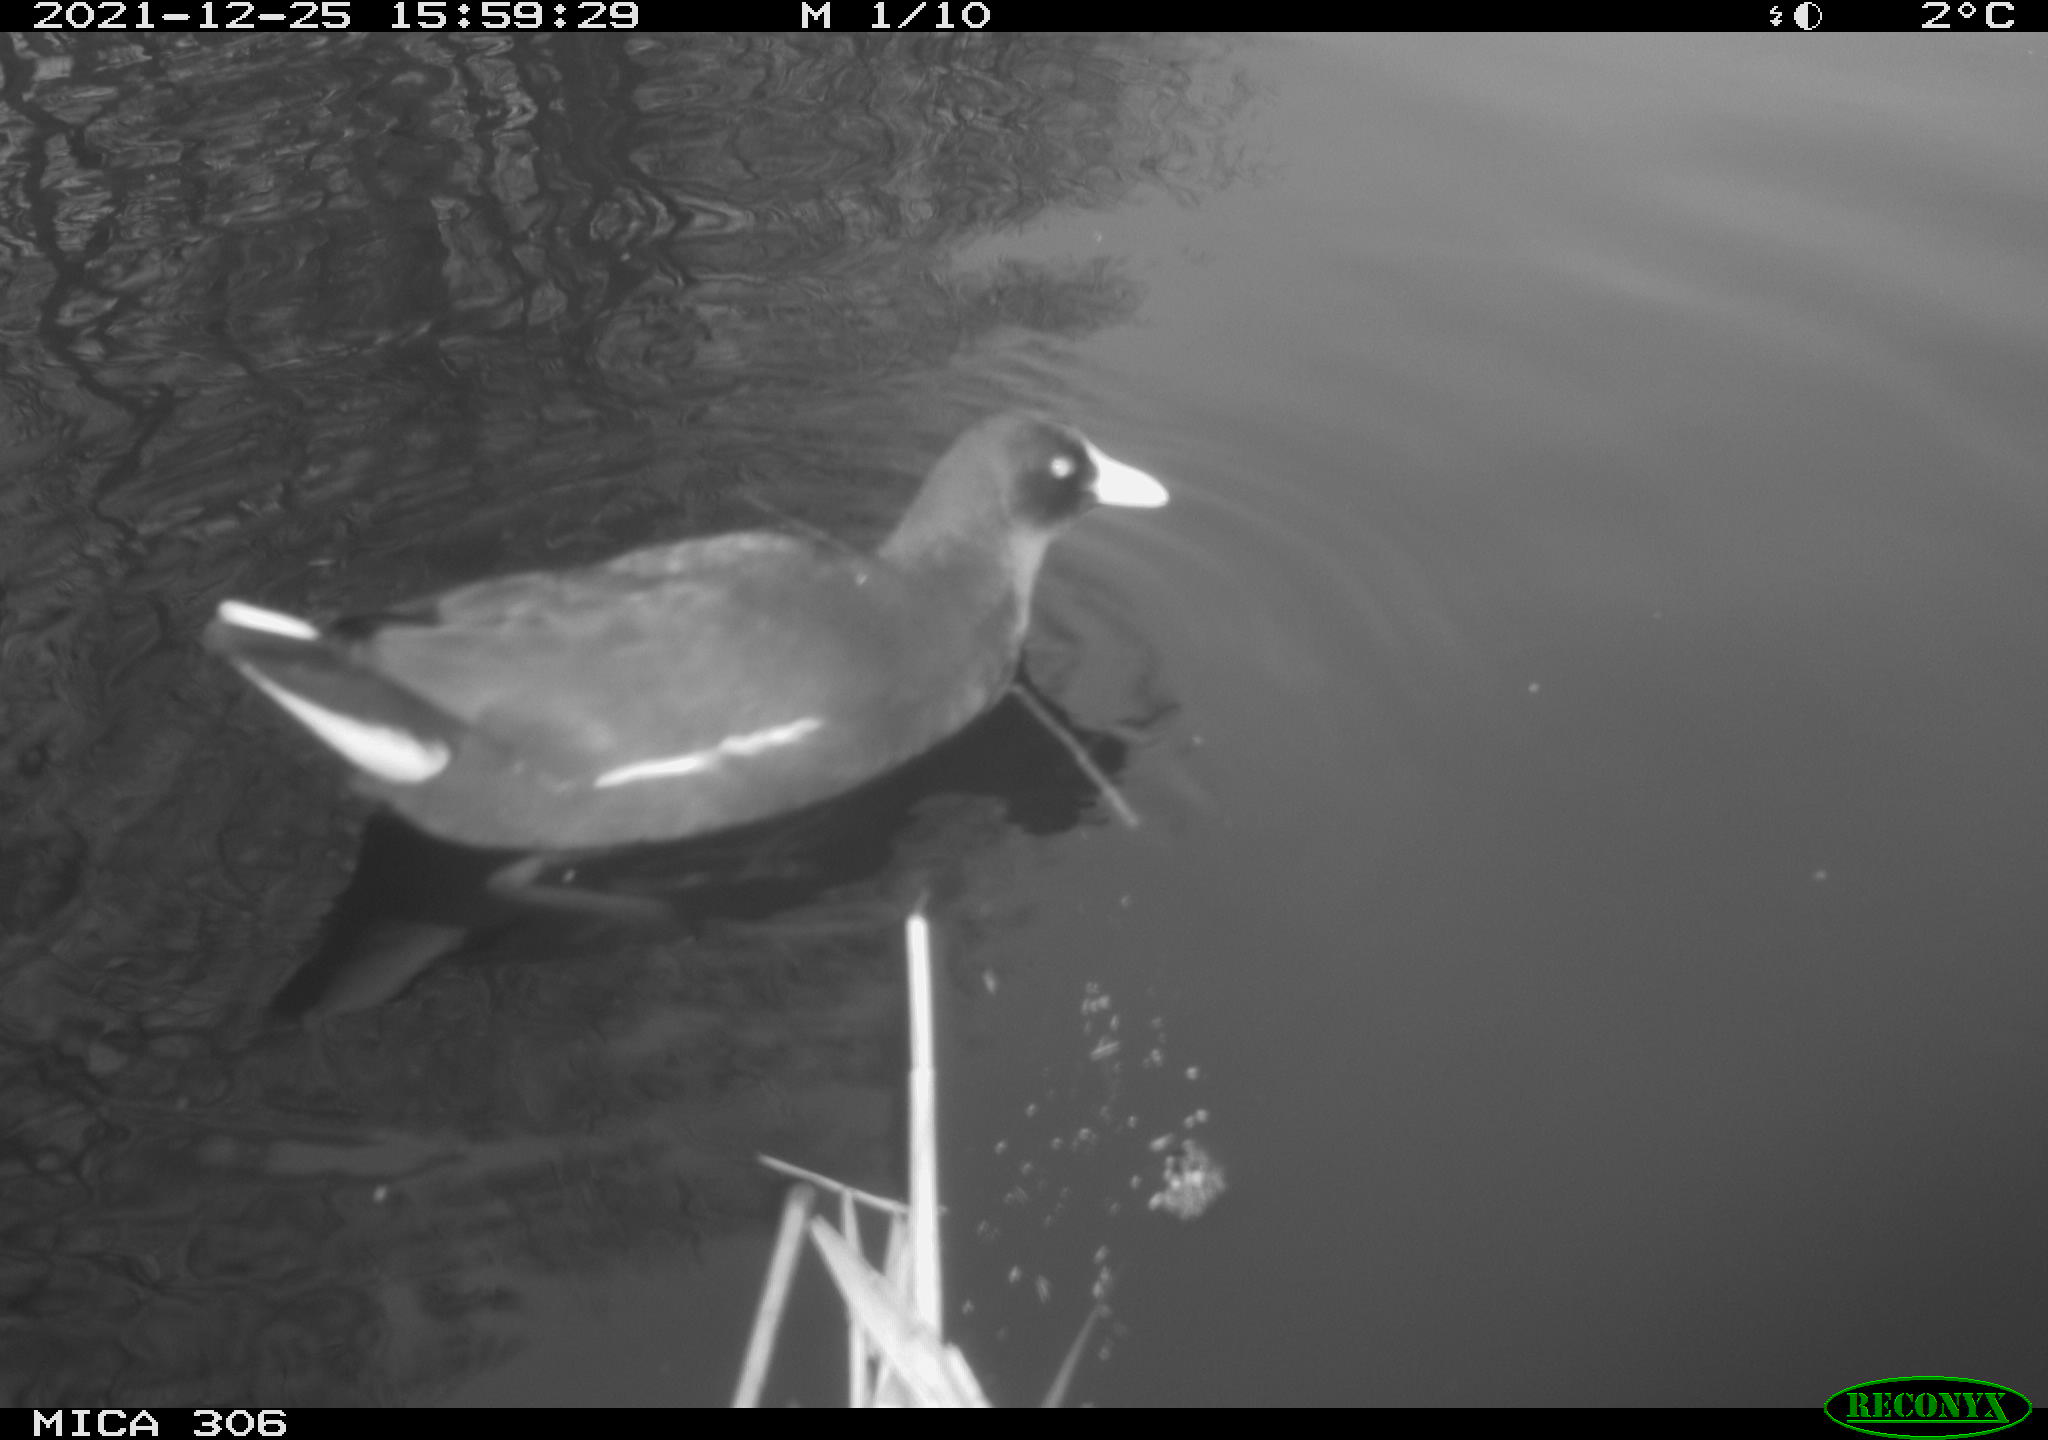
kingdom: Animalia
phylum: Chordata
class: Aves
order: Gruiformes
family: Rallidae
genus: Gallinula
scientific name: Gallinula chloropus
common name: Common moorhen
